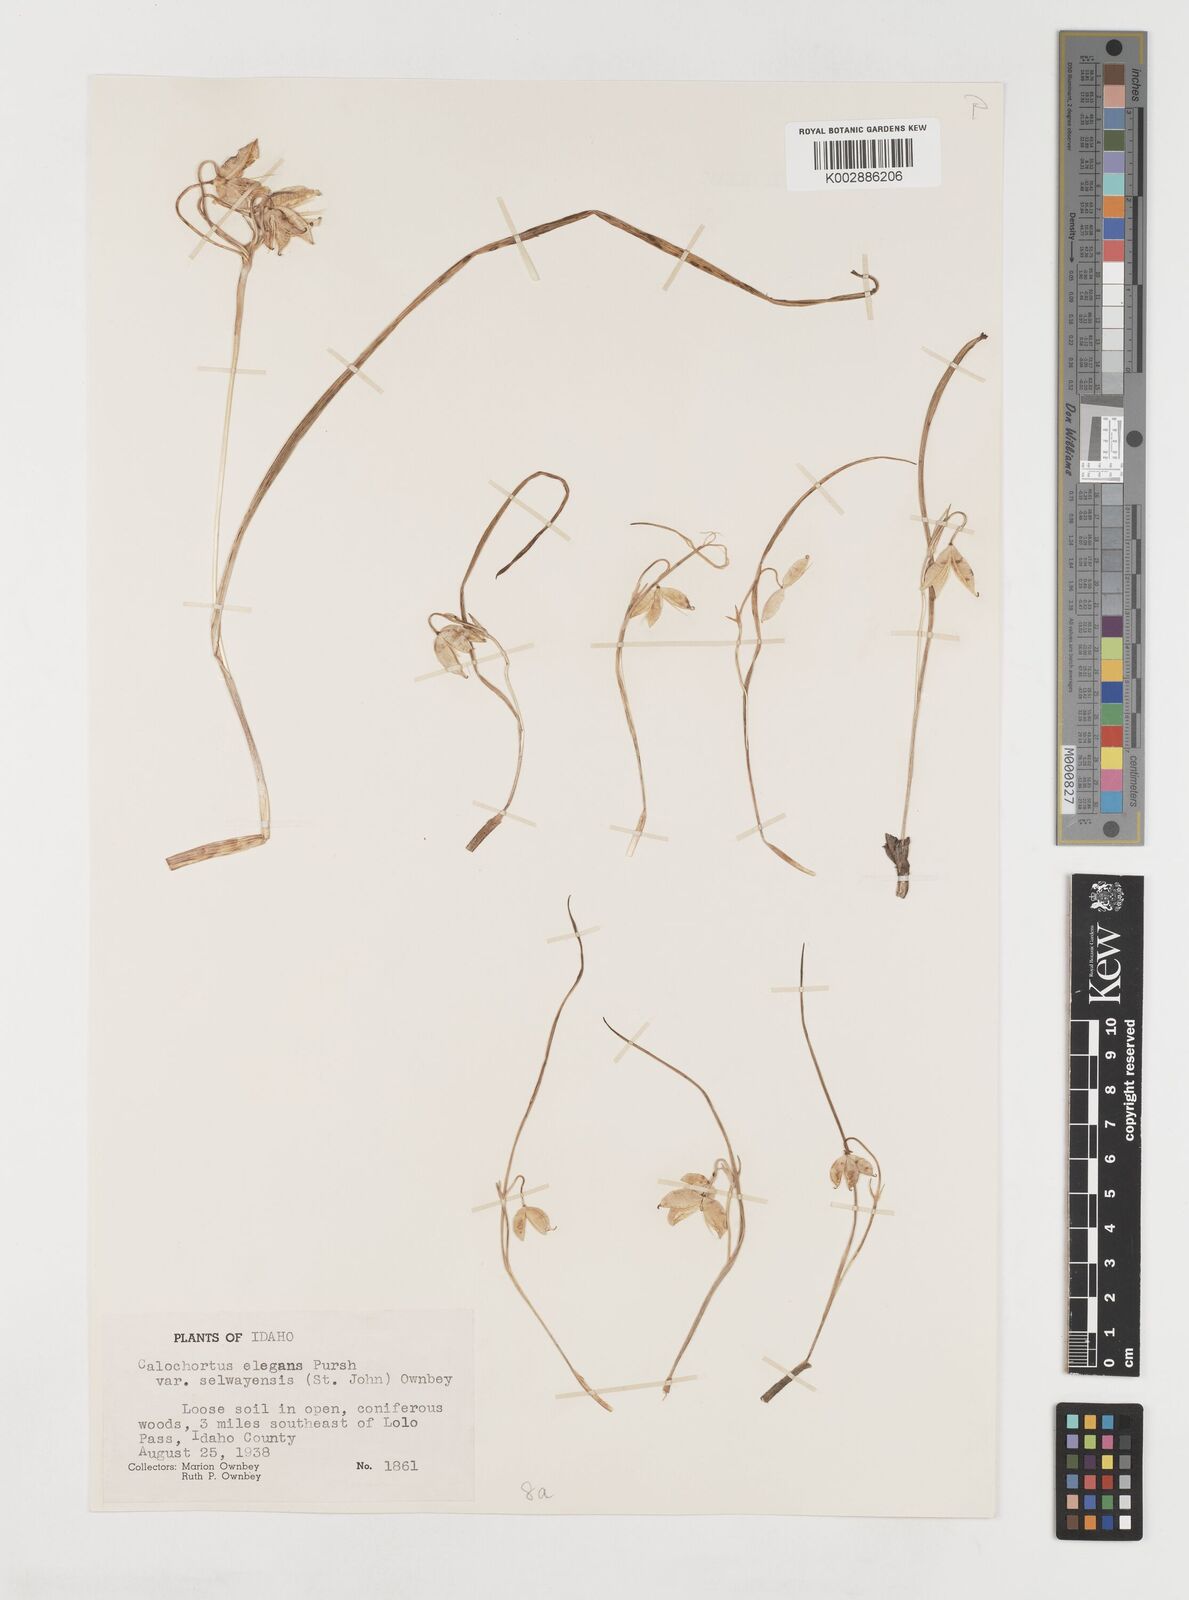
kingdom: Plantae
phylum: Tracheophyta
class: Liliopsida
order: Liliales
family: Liliaceae
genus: Calochortus
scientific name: Calochortus elegans
